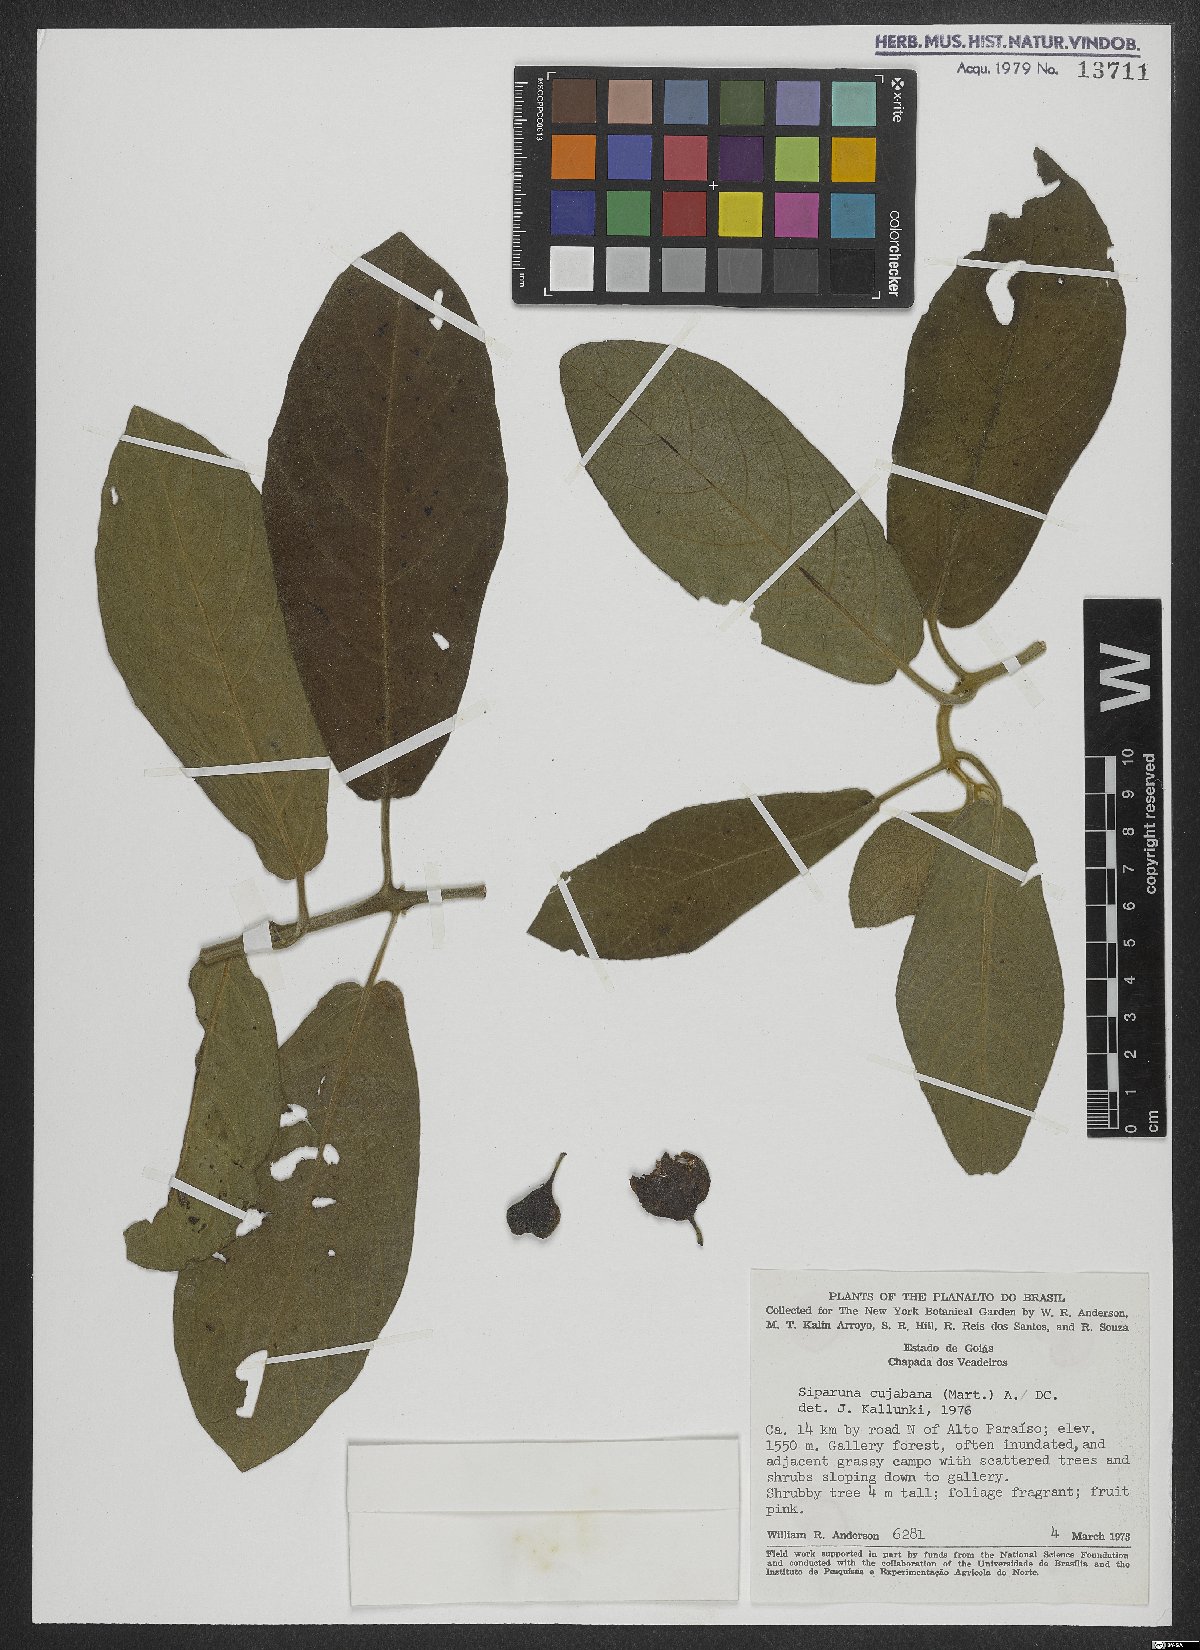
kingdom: Plantae
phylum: Tracheophyta
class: Magnoliopsida
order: Laurales
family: Siparunaceae
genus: Siparuna
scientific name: Siparuna brasiliensis
